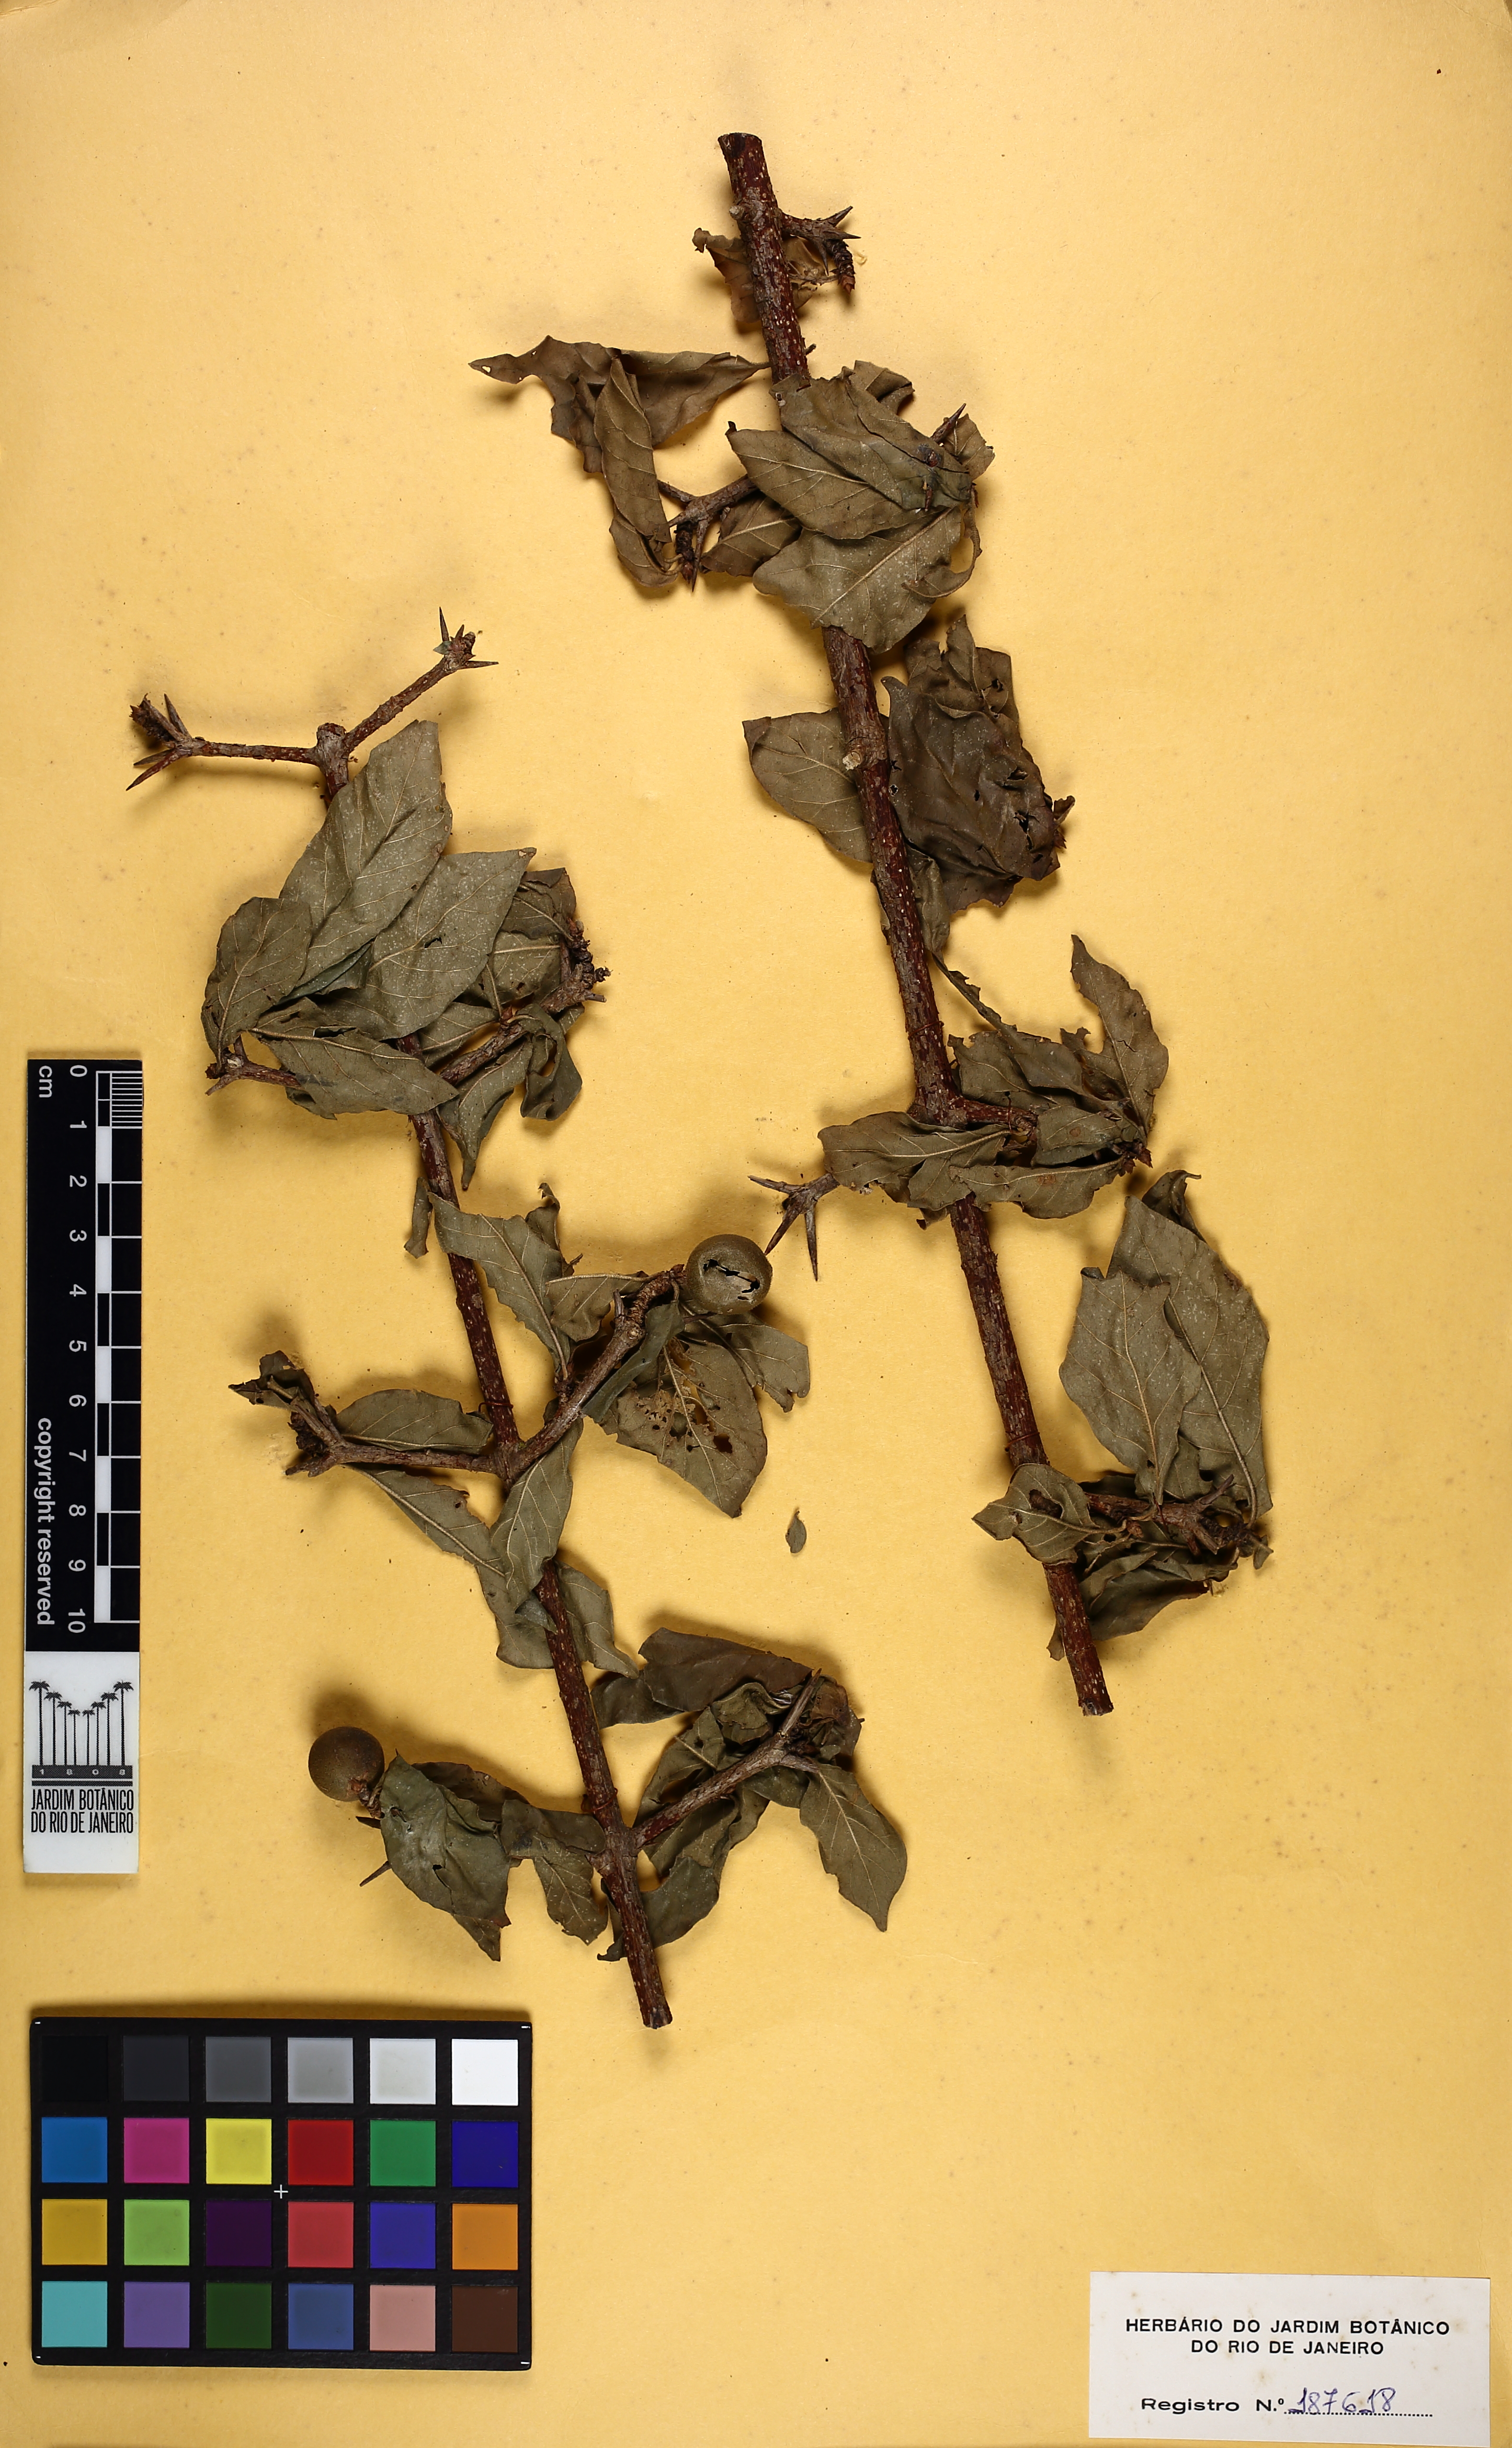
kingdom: Plantae
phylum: Tracheophyta
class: Magnoliopsida
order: Gentianales
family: Rubiaceae
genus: Randia
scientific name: Randia
